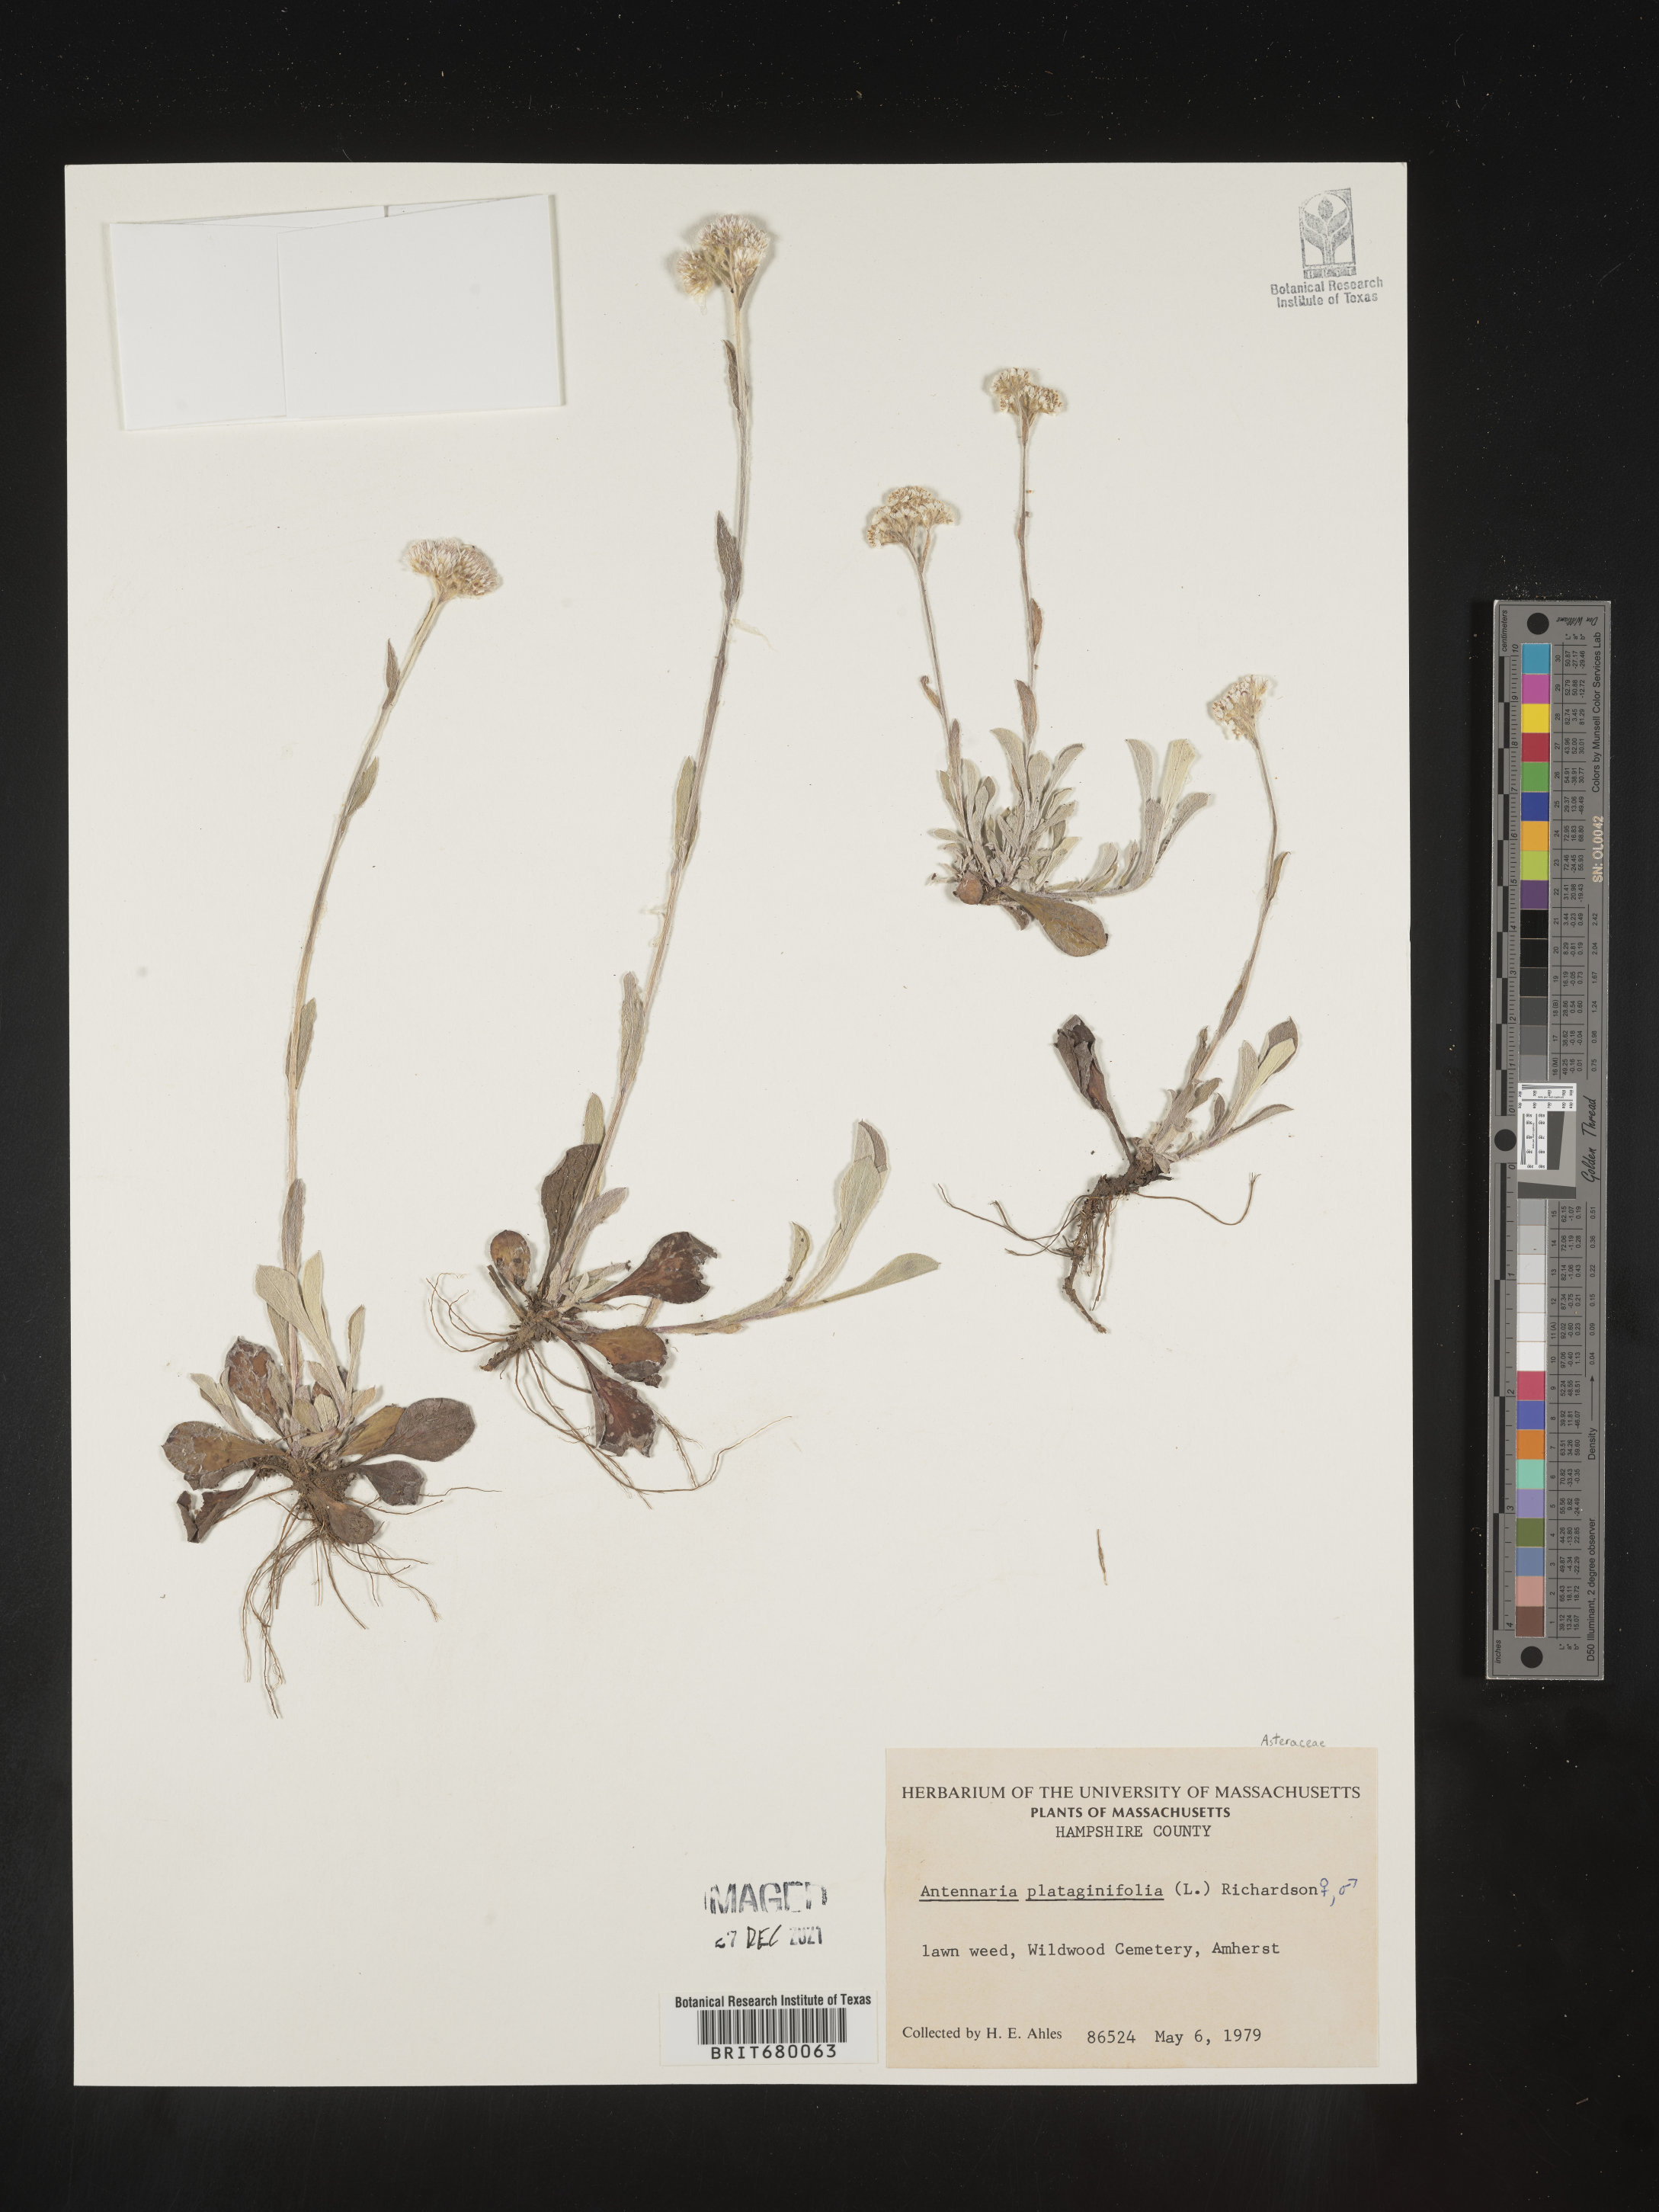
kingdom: Plantae
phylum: Tracheophyta
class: Magnoliopsida
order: Asterales
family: Asteraceae
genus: Antennaria
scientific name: Antennaria plantaginifolia
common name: Plantain-leaved pussytoes
